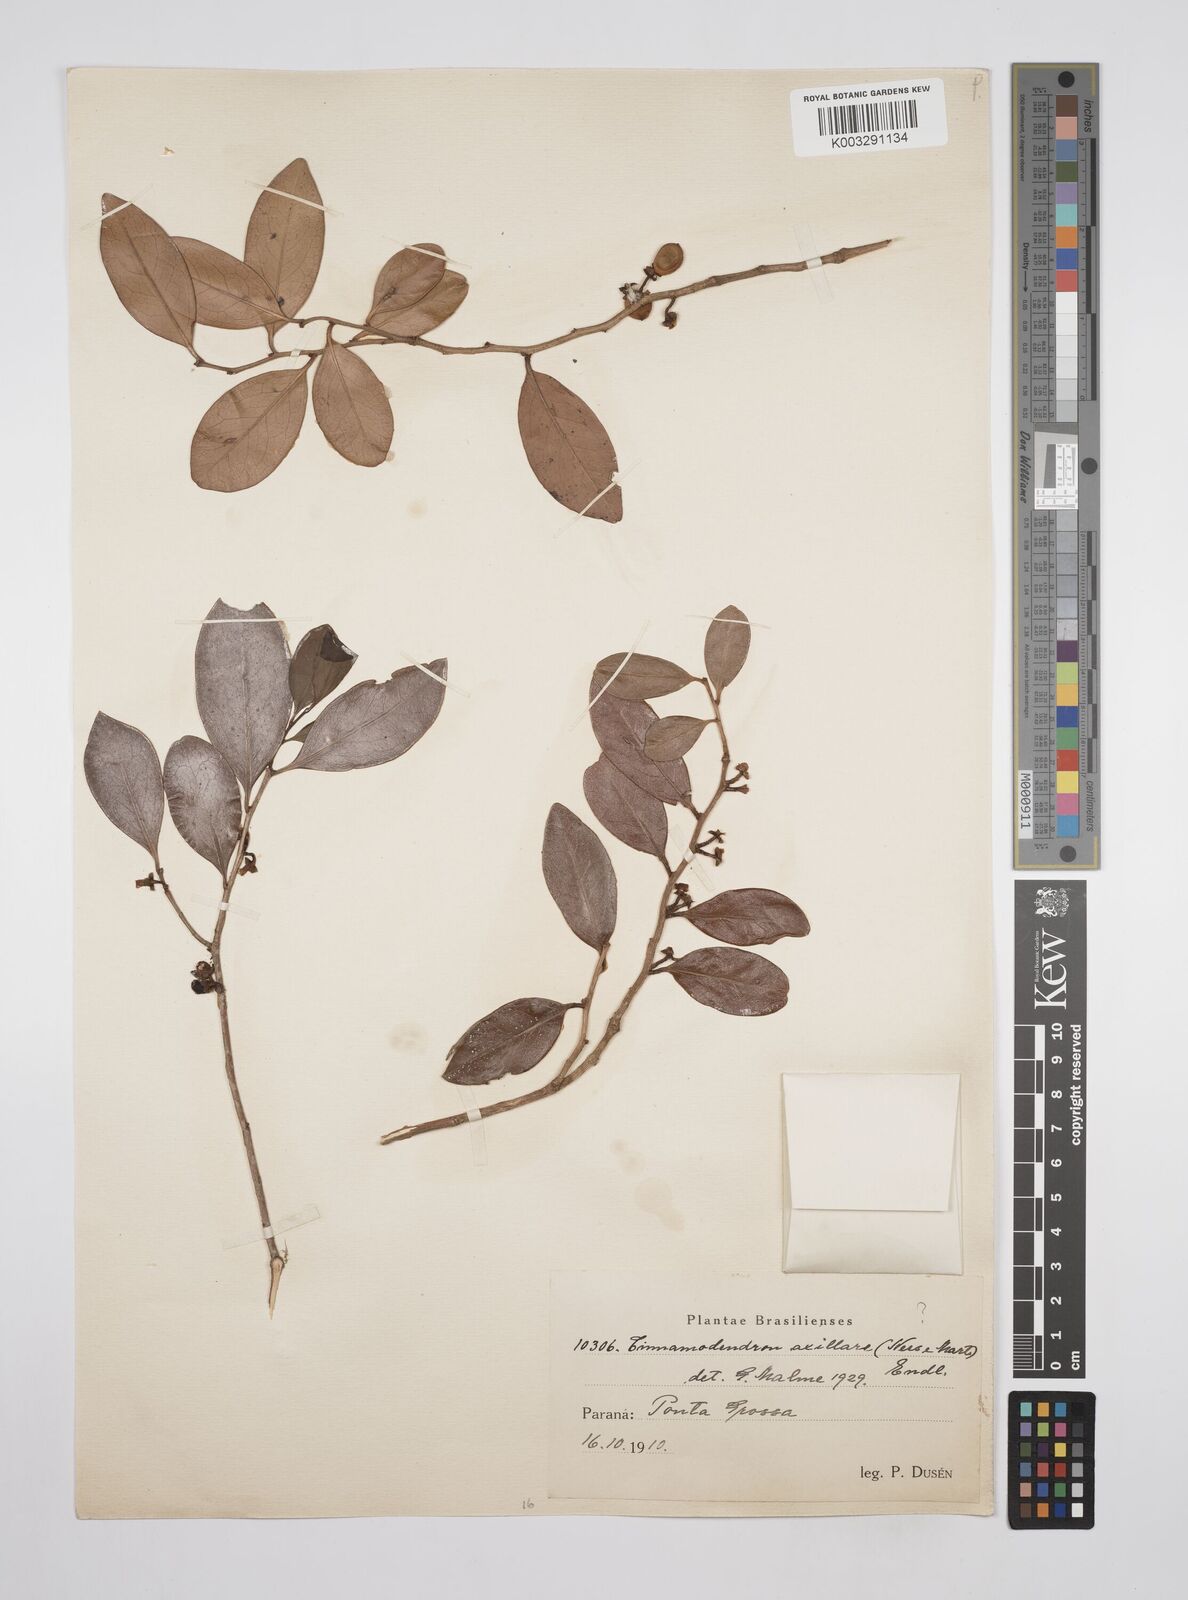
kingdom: Plantae
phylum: Tracheophyta
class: Magnoliopsida
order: Canellales
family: Canellaceae
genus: Cinnamodendron
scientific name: Cinnamodendron dinisii
